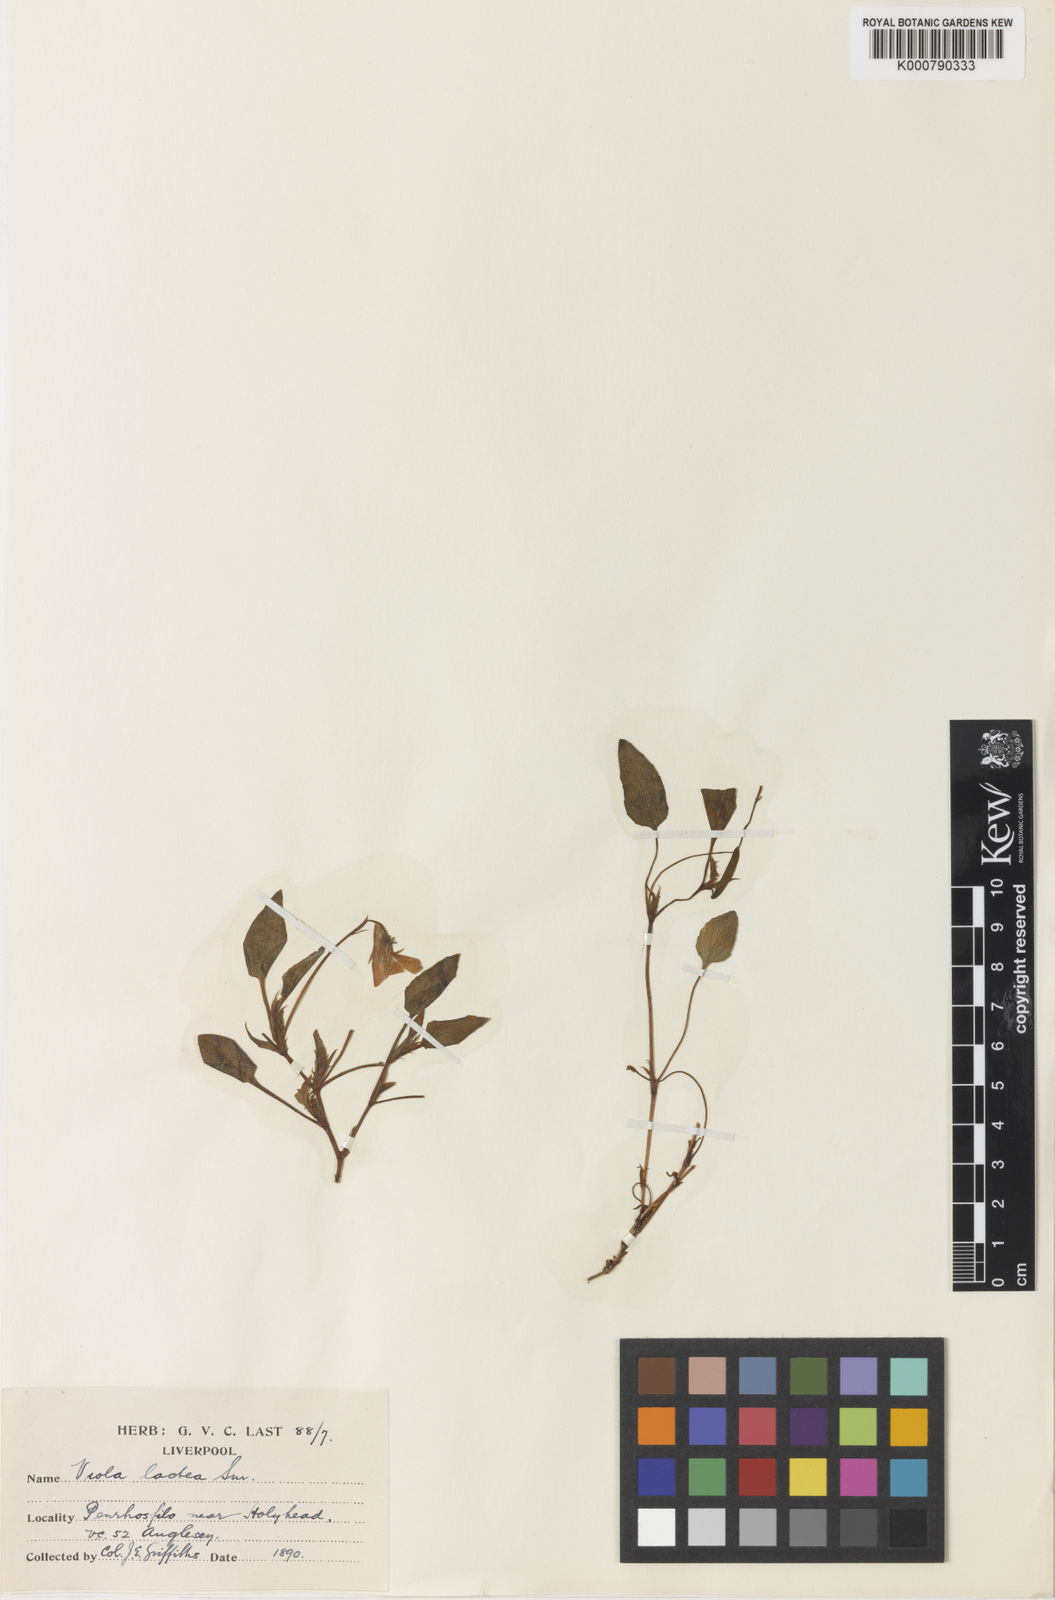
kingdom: Plantae
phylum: Tracheophyta
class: Magnoliopsida
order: Malpighiales
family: Violaceae
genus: Viola
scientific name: Viola lactea
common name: Pale dog-violet
